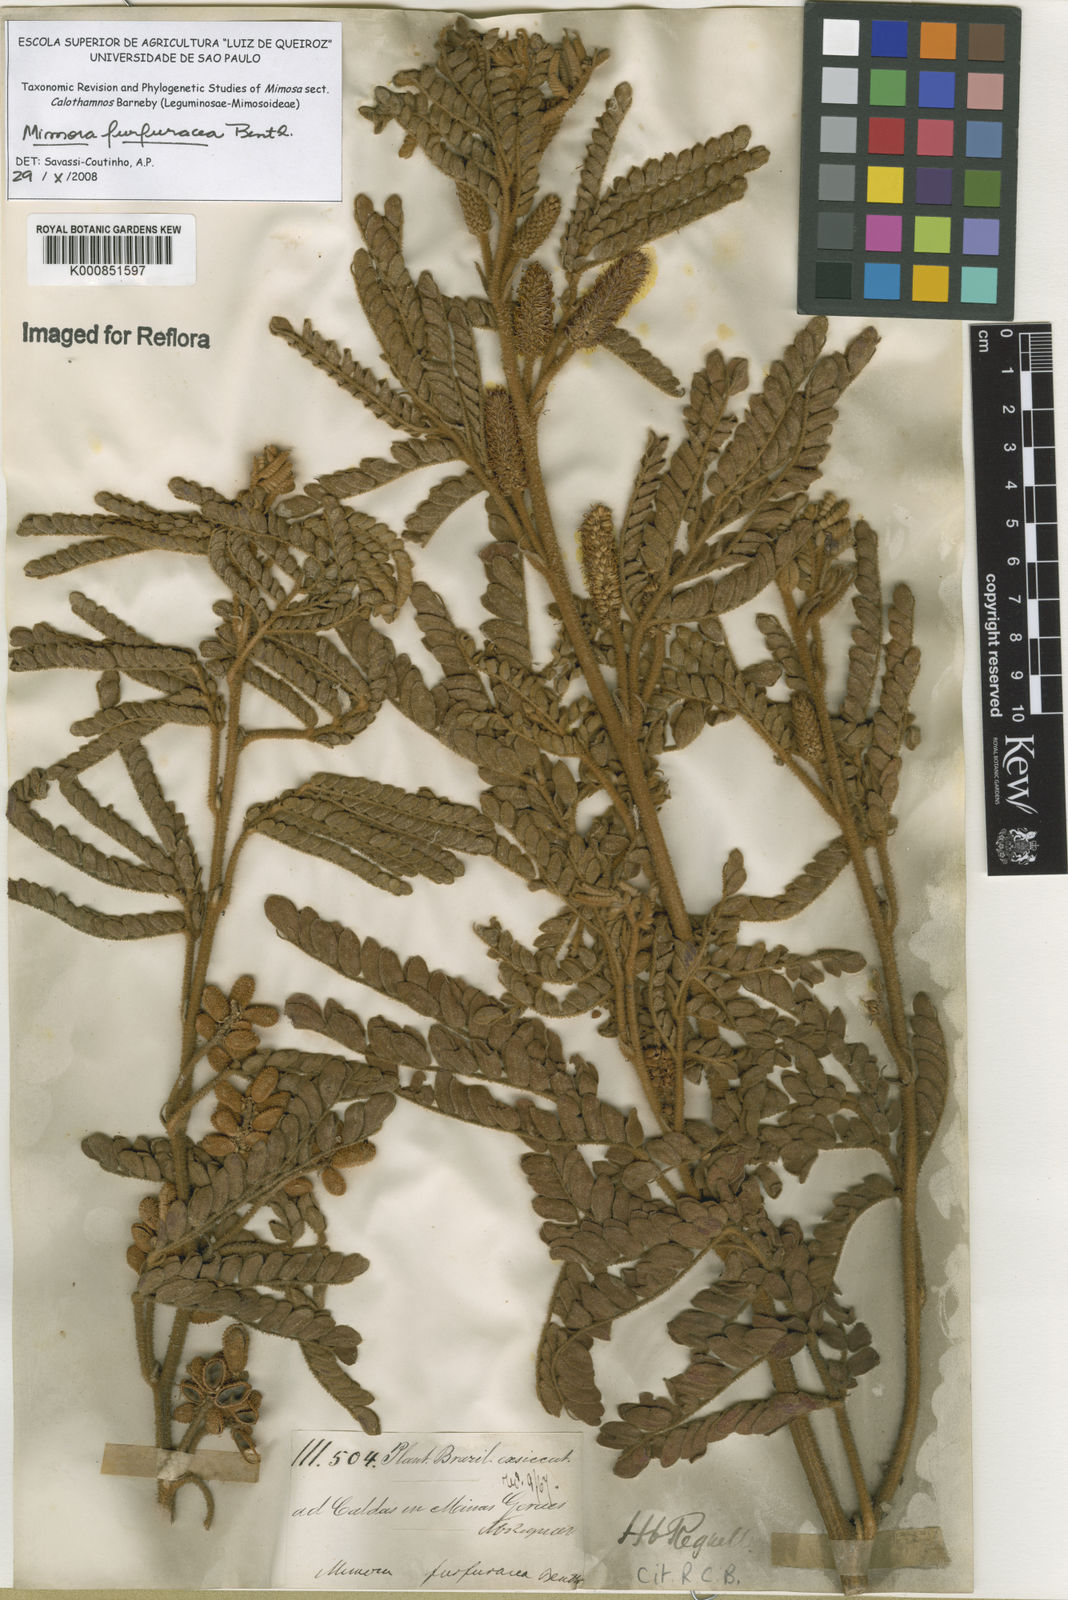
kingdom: Plantae
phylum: Tracheophyta
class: Magnoliopsida
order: Fabales
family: Fabaceae
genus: Mimosa
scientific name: Mimosa furfuracea
